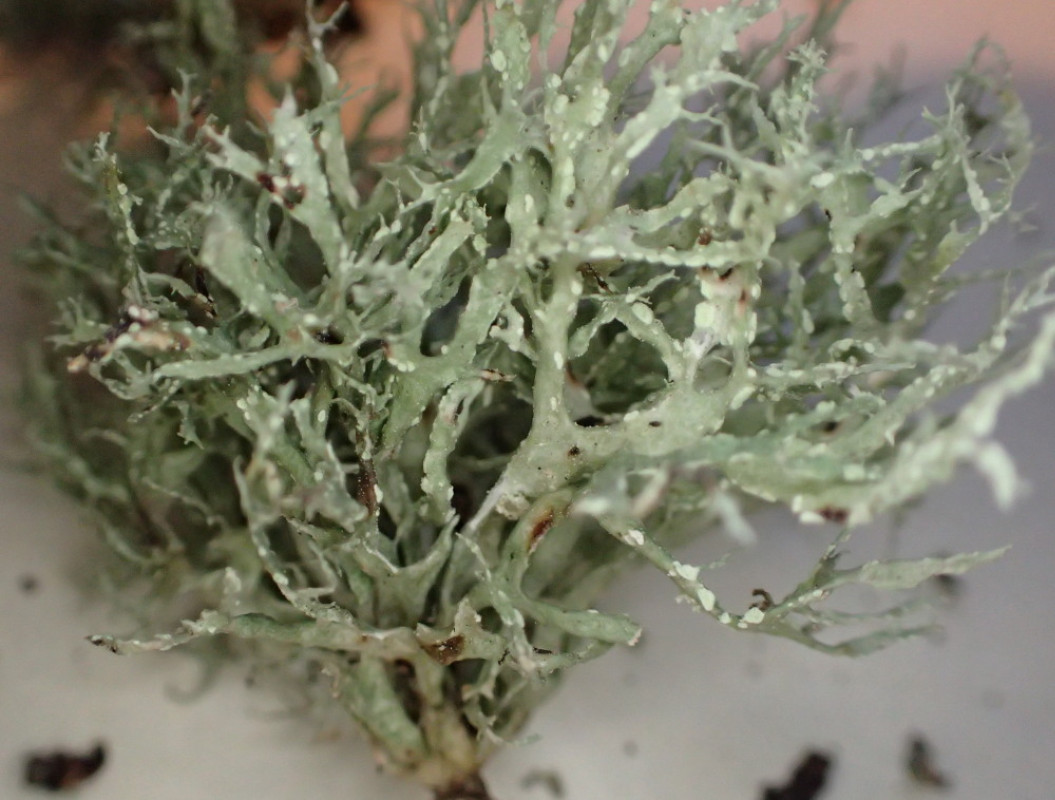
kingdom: Fungi
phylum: Ascomycota
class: Lecanoromycetes
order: Lecanorales
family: Ramalinaceae
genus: Ramalina
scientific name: Ramalina farinacea
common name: melet grenlav
